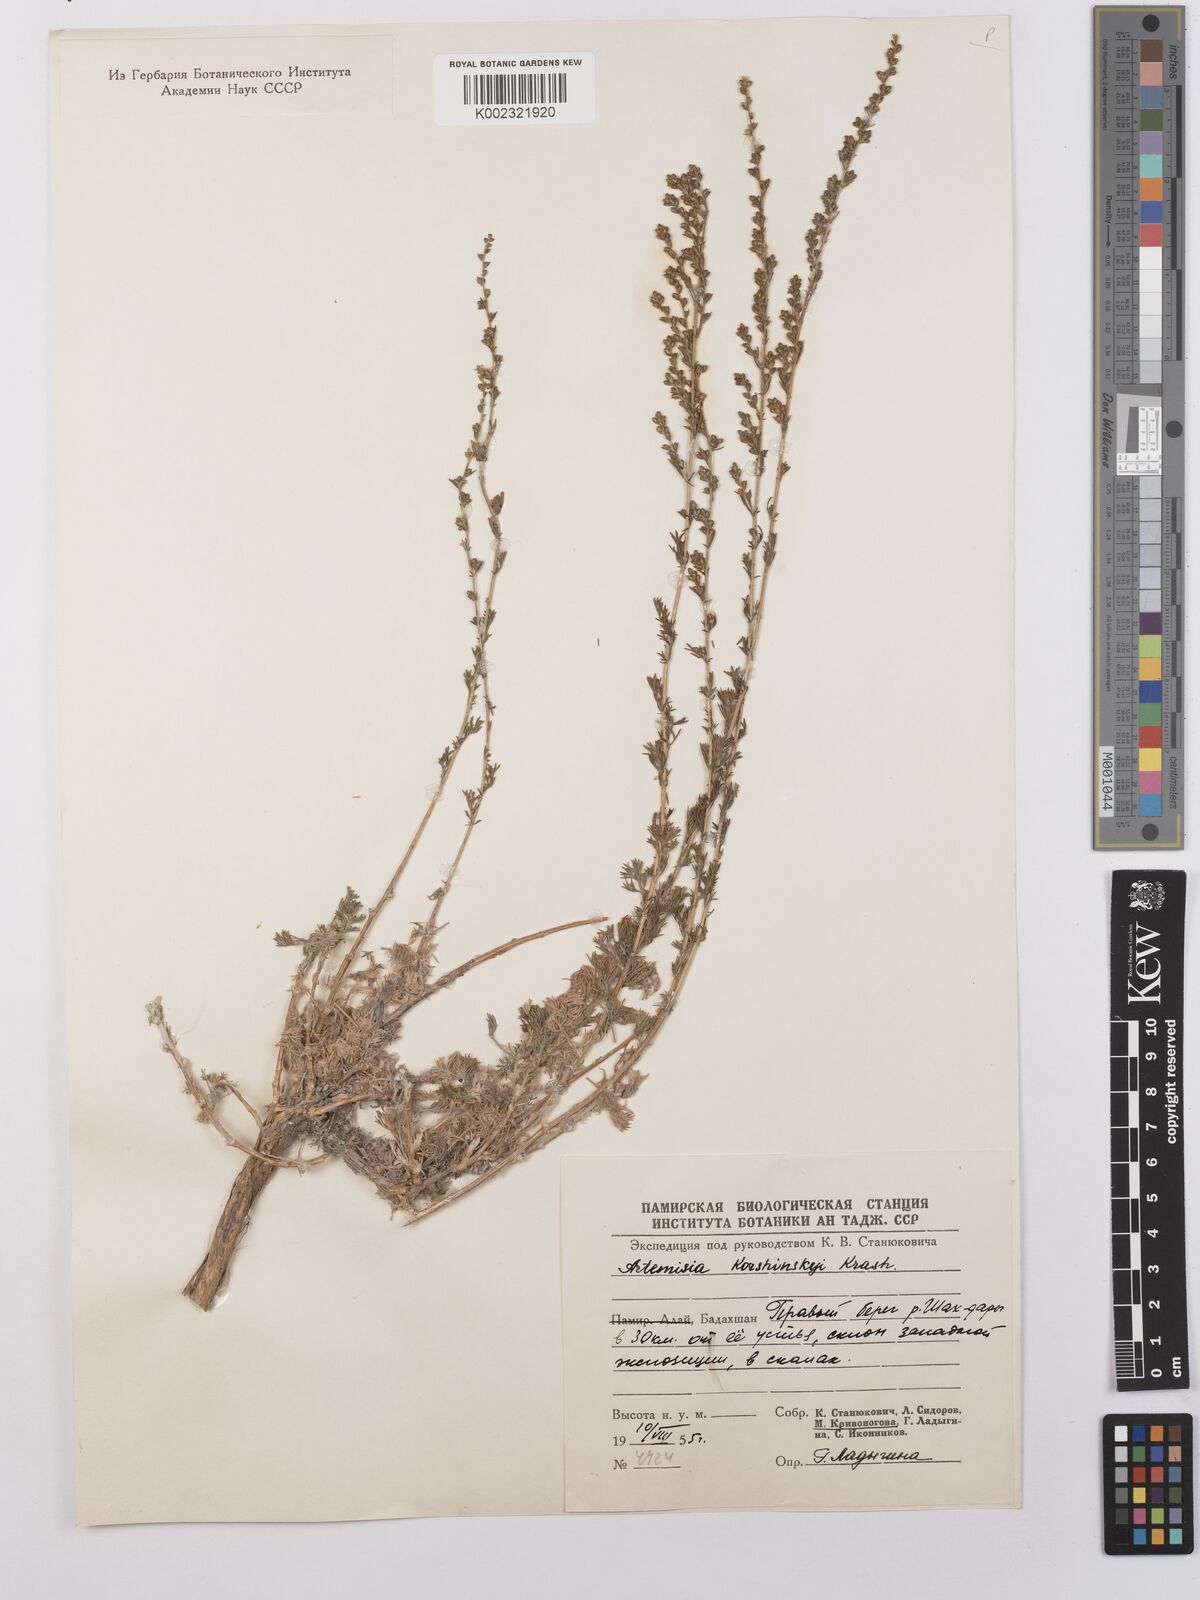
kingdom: Plantae
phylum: Tracheophyta
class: Magnoliopsida
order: Asterales
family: Asteraceae
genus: Artemisia
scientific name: Artemisia korshinskyi
